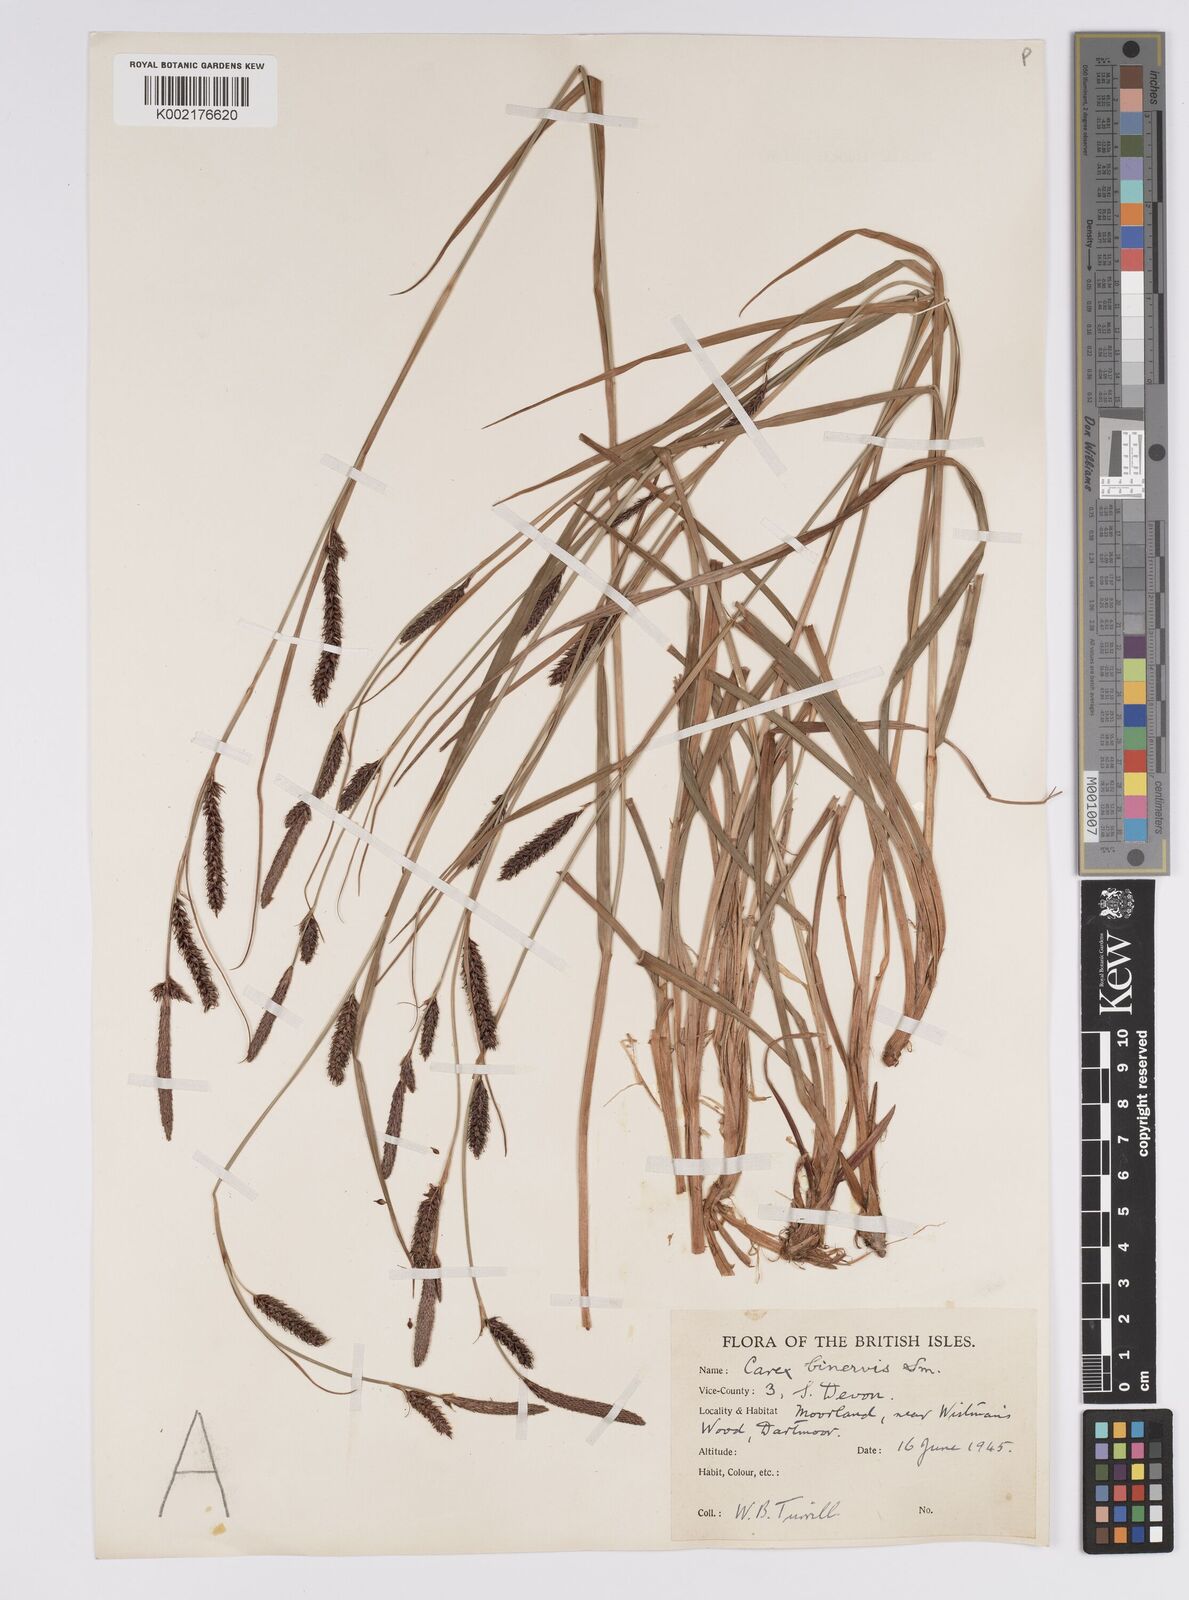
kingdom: Plantae
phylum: Tracheophyta
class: Liliopsida
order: Poales
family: Cyperaceae
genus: Carex
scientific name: Carex binervis
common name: Green-ribbed sedge
